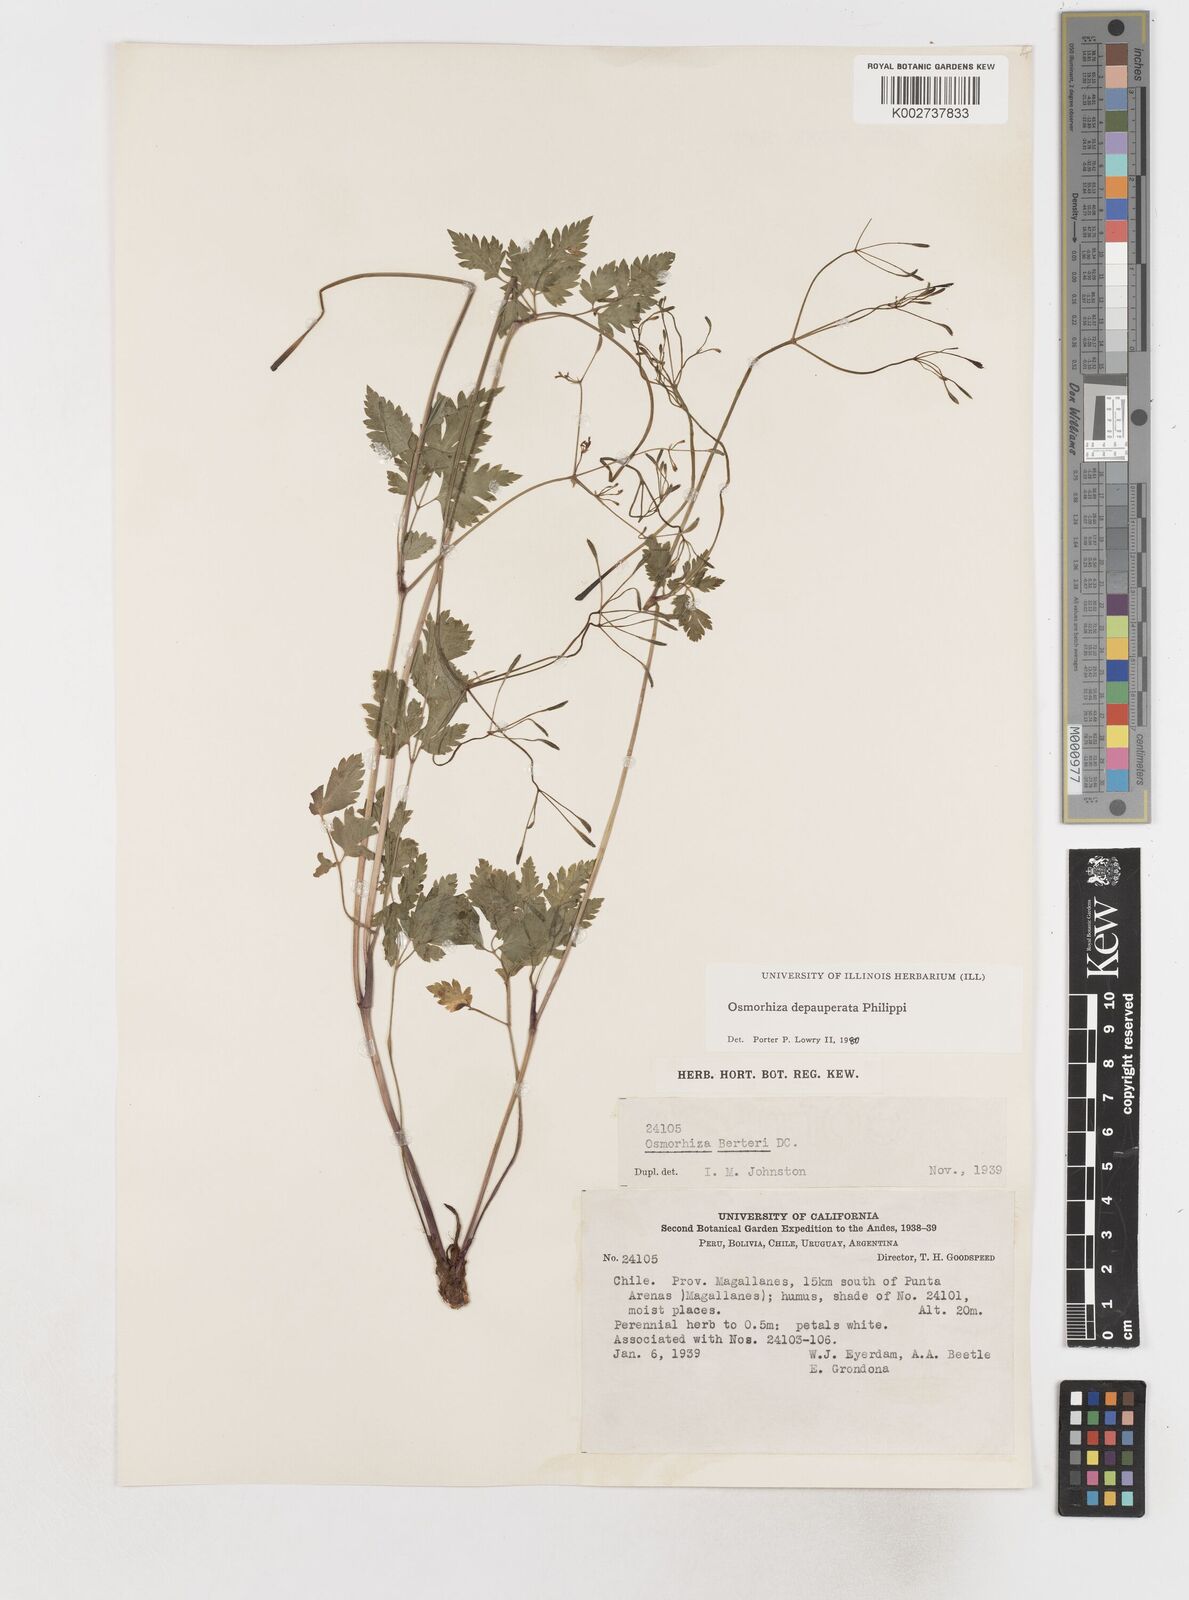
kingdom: Plantae
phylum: Tracheophyta
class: Magnoliopsida
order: Apiales
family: Apiaceae
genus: Osmorhiza
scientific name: Osmorhiza depauperata
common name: Blunt sweet cicely
